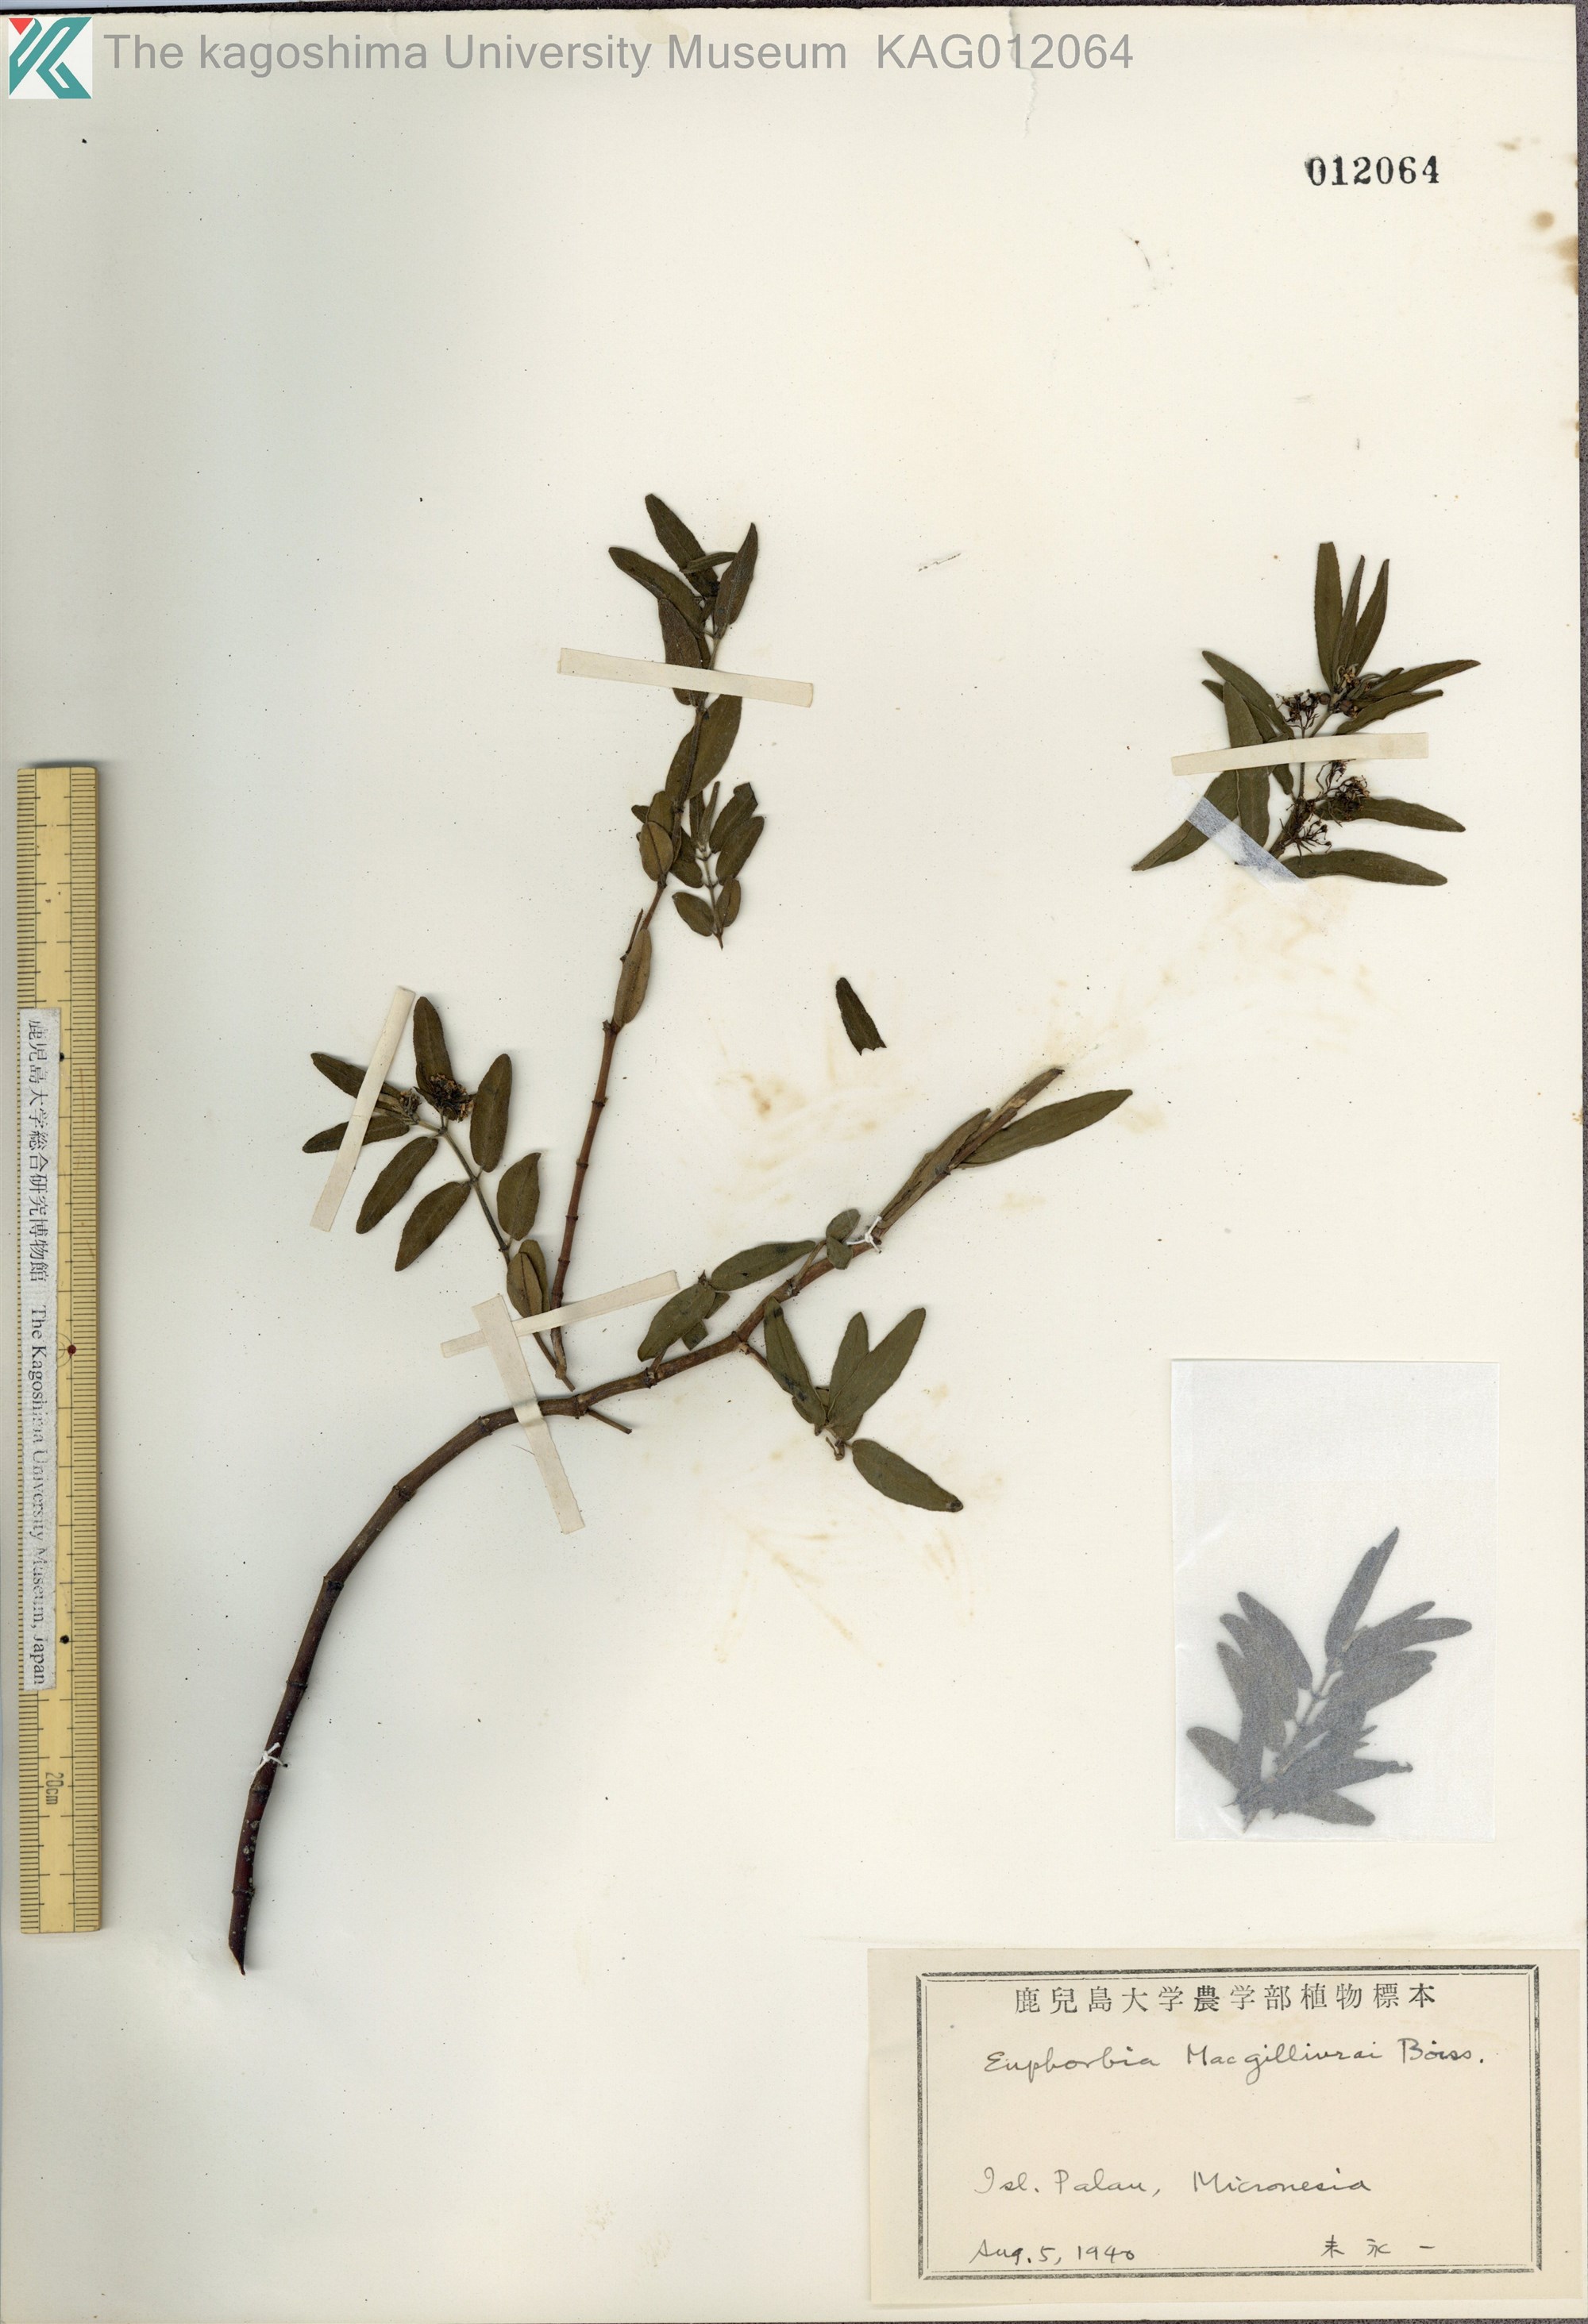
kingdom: Plantae
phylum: Tracheophyta
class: Magnoliopsida
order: Malpighiales
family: Euphorbiaceae
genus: Euphorbia
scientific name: Euphorbia bifida
